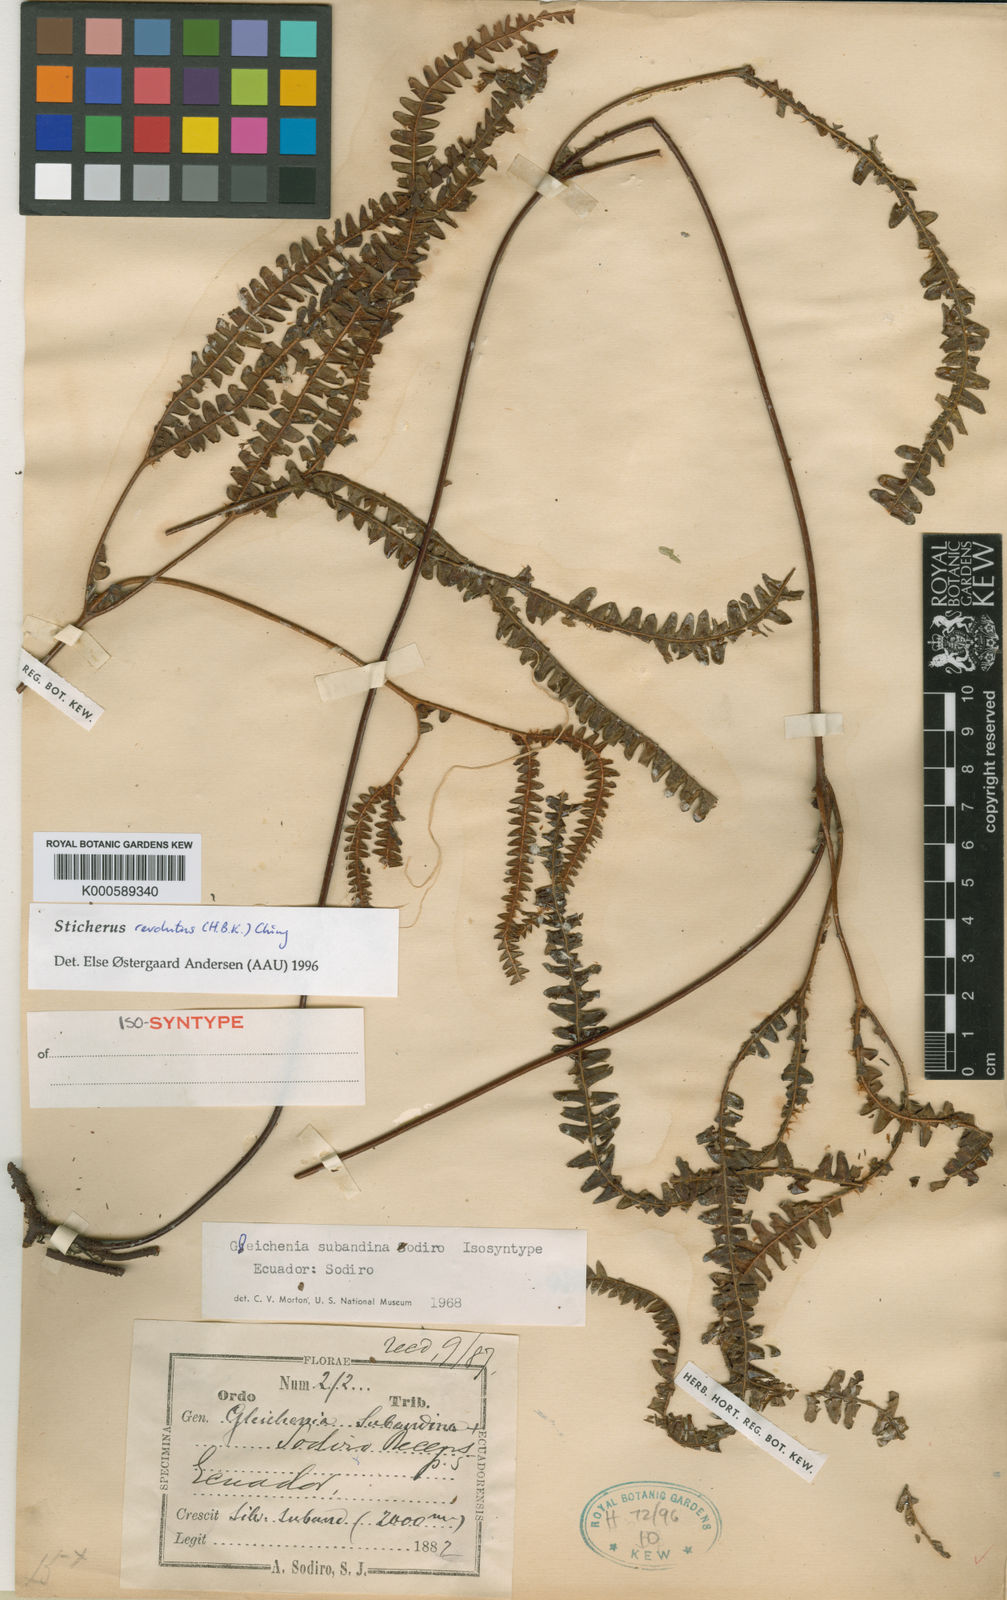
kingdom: Plantae
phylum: Tracheophyta
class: Polypodiopsida
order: Gleicheniales
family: Gleicheniaceae
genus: Sticherus
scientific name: Sticherus simplex
